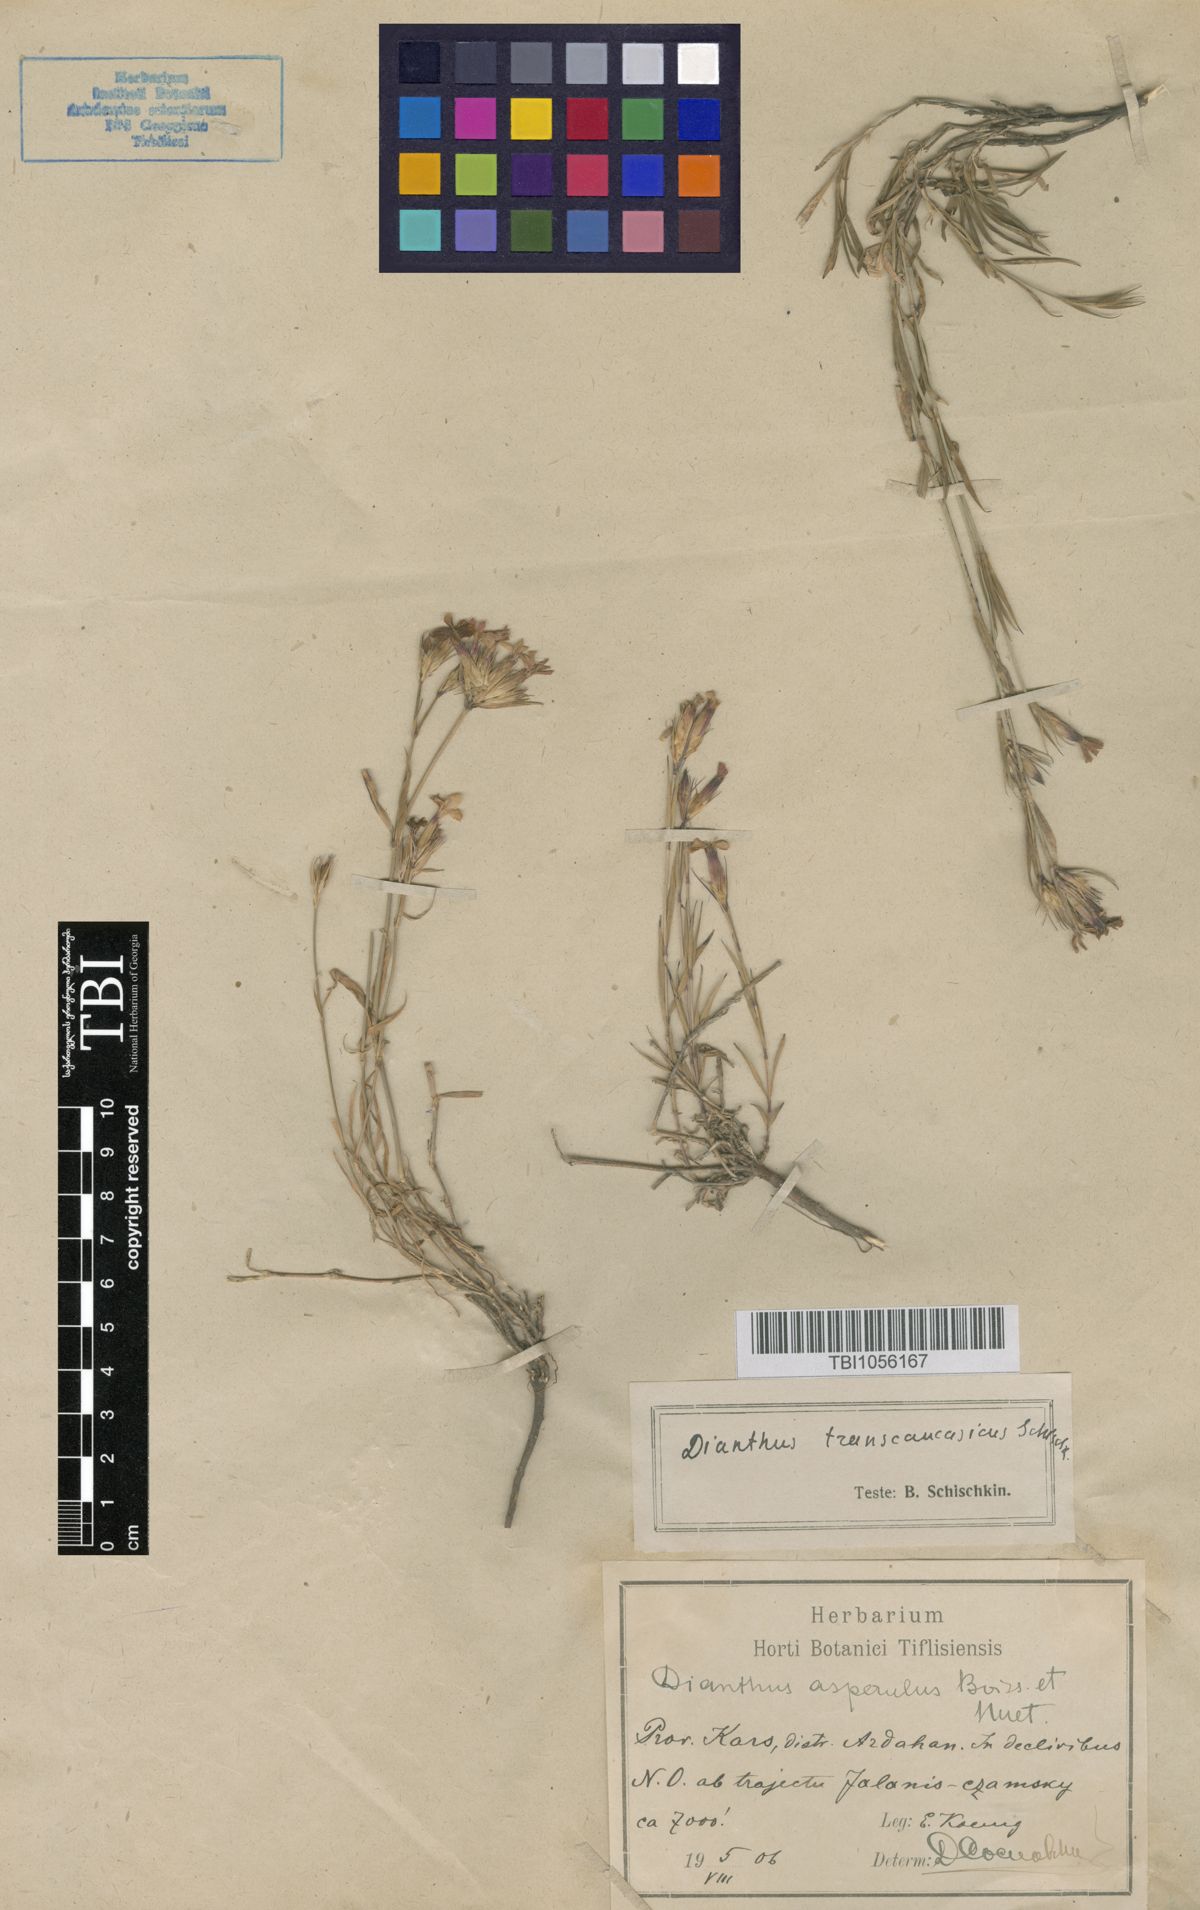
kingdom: Plantae
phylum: Tracheophyta
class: Magnoliopsida
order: Caryophyllales
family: Caryophyllaceae
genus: Dianthus
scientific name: Dianthus masmenaeus
